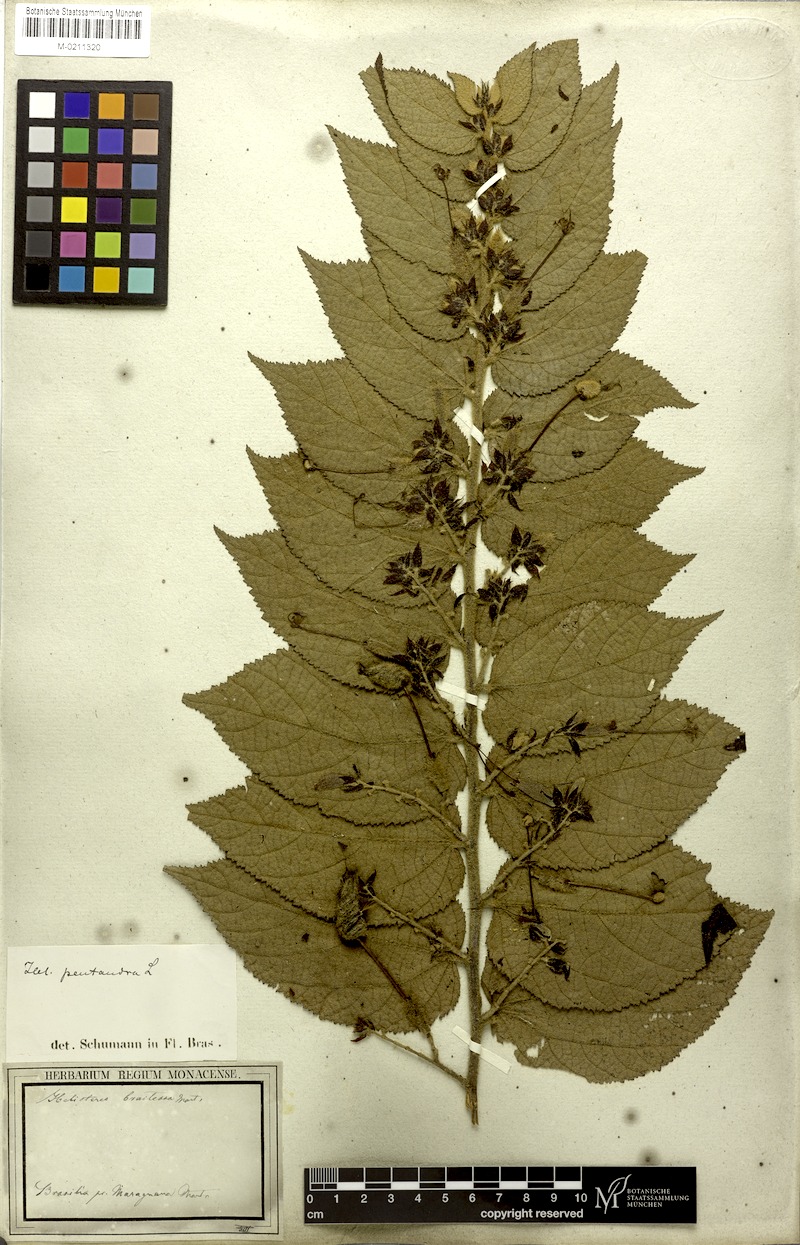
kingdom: Plantae
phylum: Tracheophyta
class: Magnoliopsida
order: Malvales
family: Malvaceae
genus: Helicteres
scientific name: Helicteres pentandra
